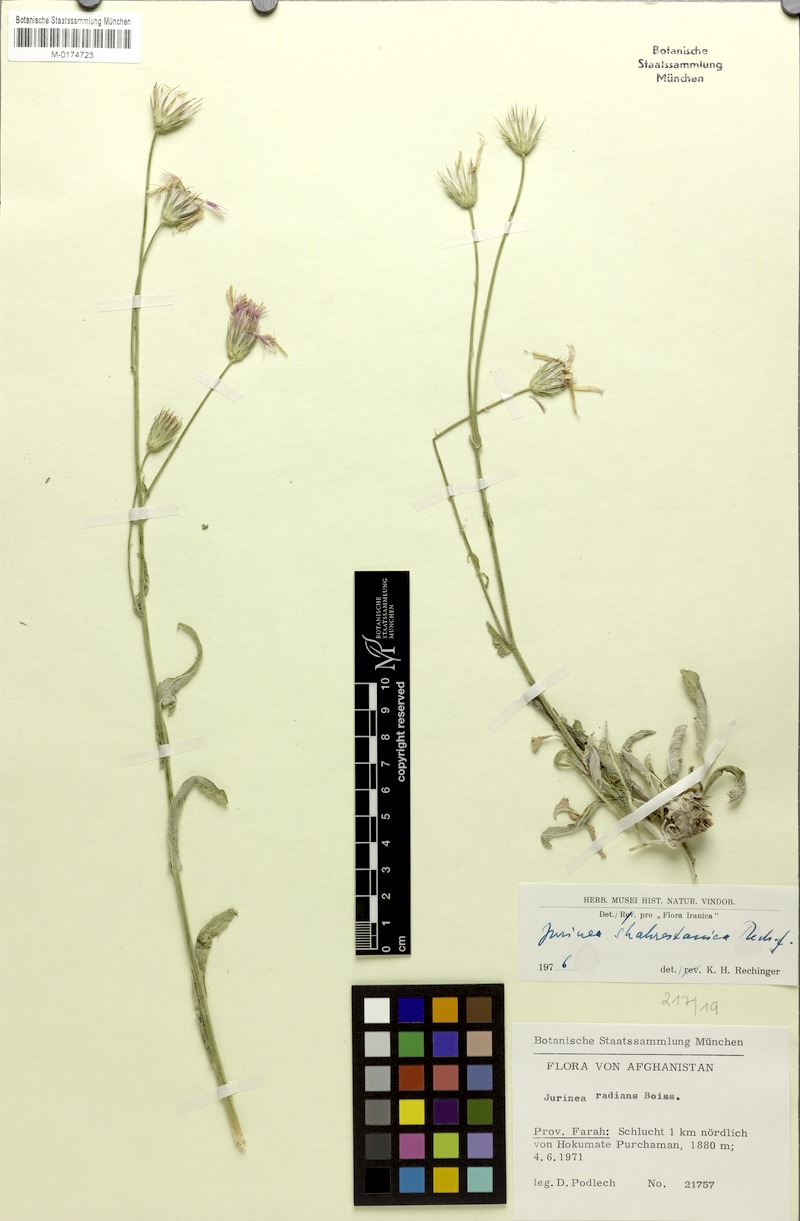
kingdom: Plantae
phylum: Tracheophyta
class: Magnoliopsida
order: Asterales
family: Asteraceae
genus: Jurinea
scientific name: Jurinea shahrestanica
